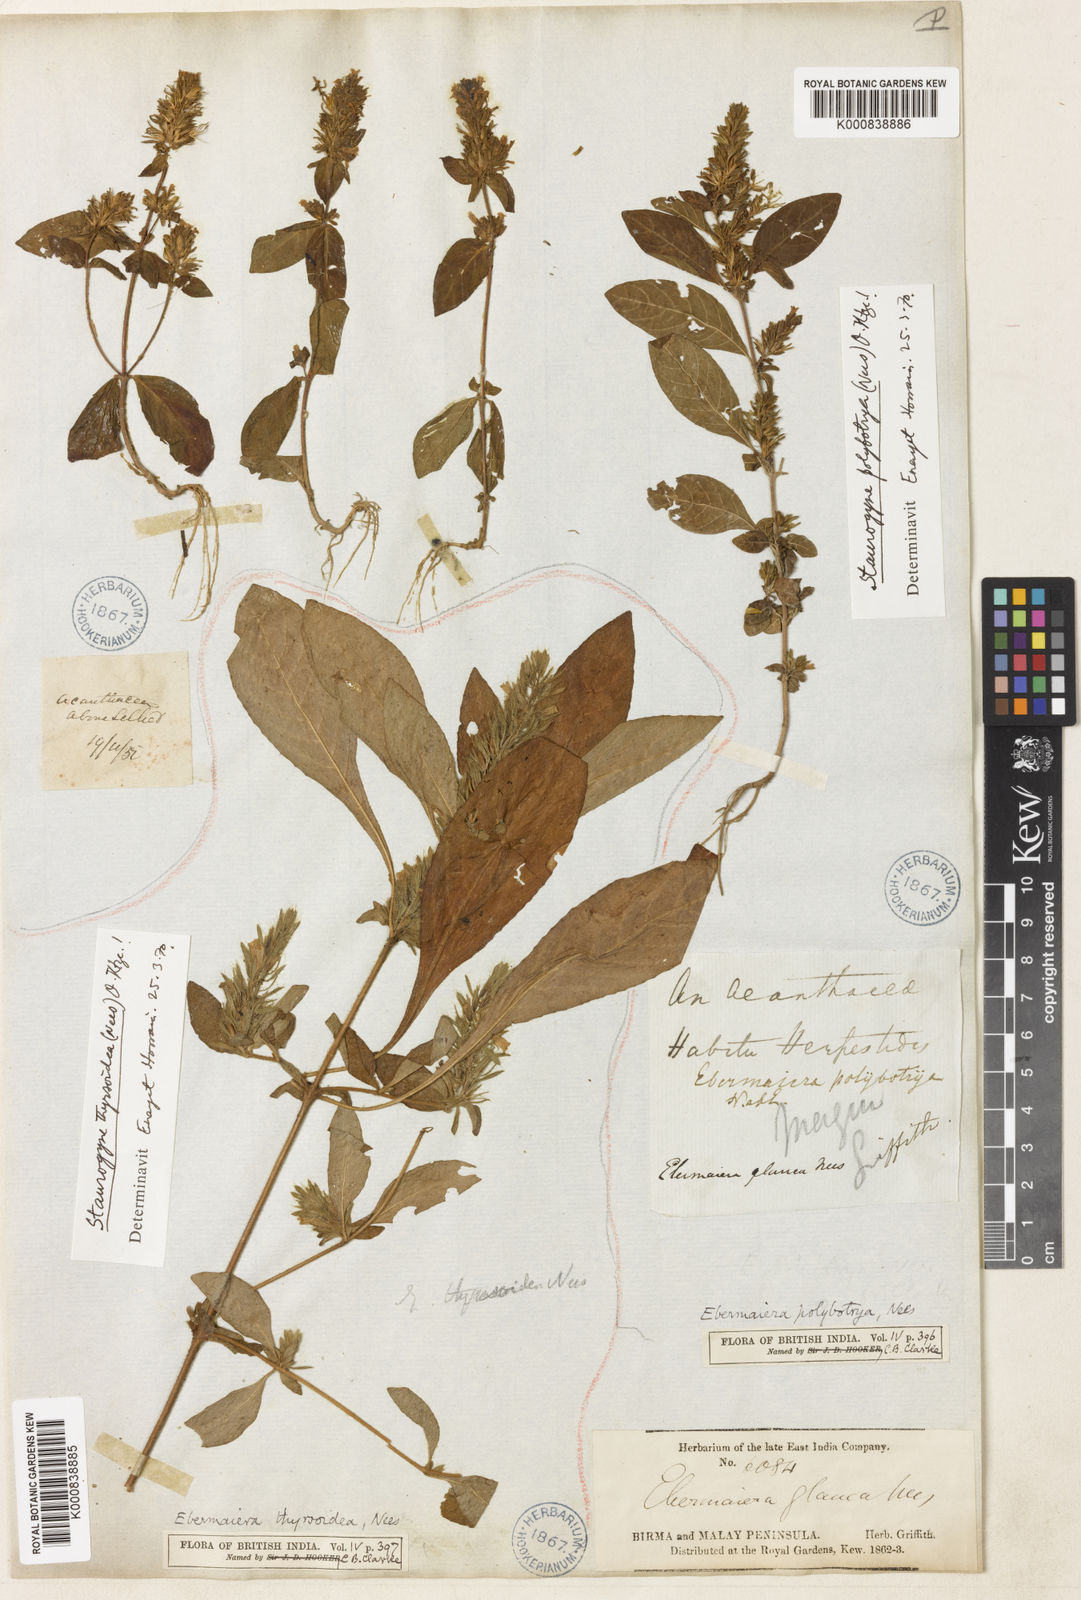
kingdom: Plantae
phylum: Tracheophyta
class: Magnoliopsida
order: Lamiales
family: Acanthaceae
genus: Staurogyne
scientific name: Staurogyne polybotrya
